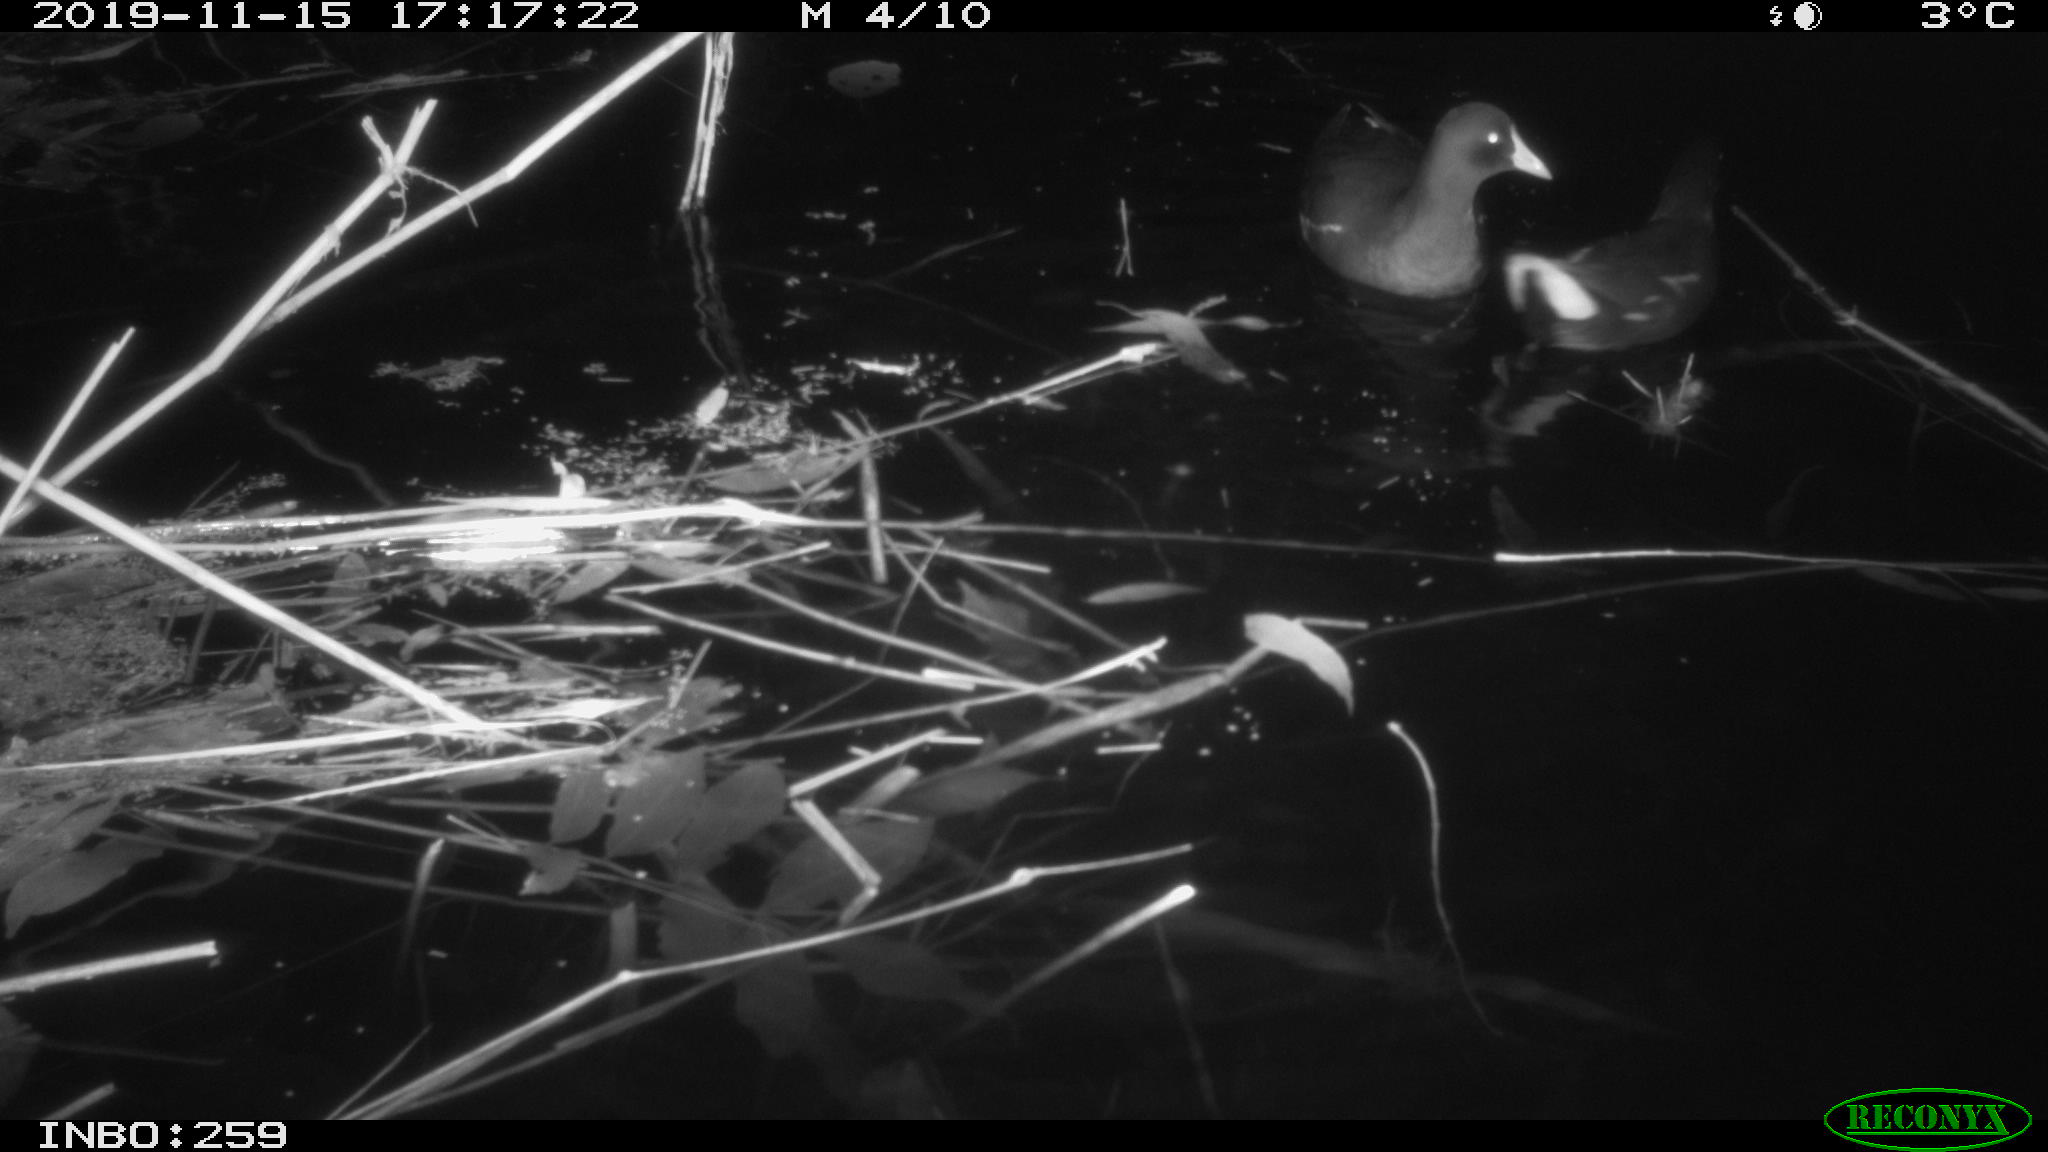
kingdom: Animalia
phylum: Chordata
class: Aves
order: Gruiformes
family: Rallidae
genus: Gallinula
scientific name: Gallinula chloropus
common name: Common moorhen
